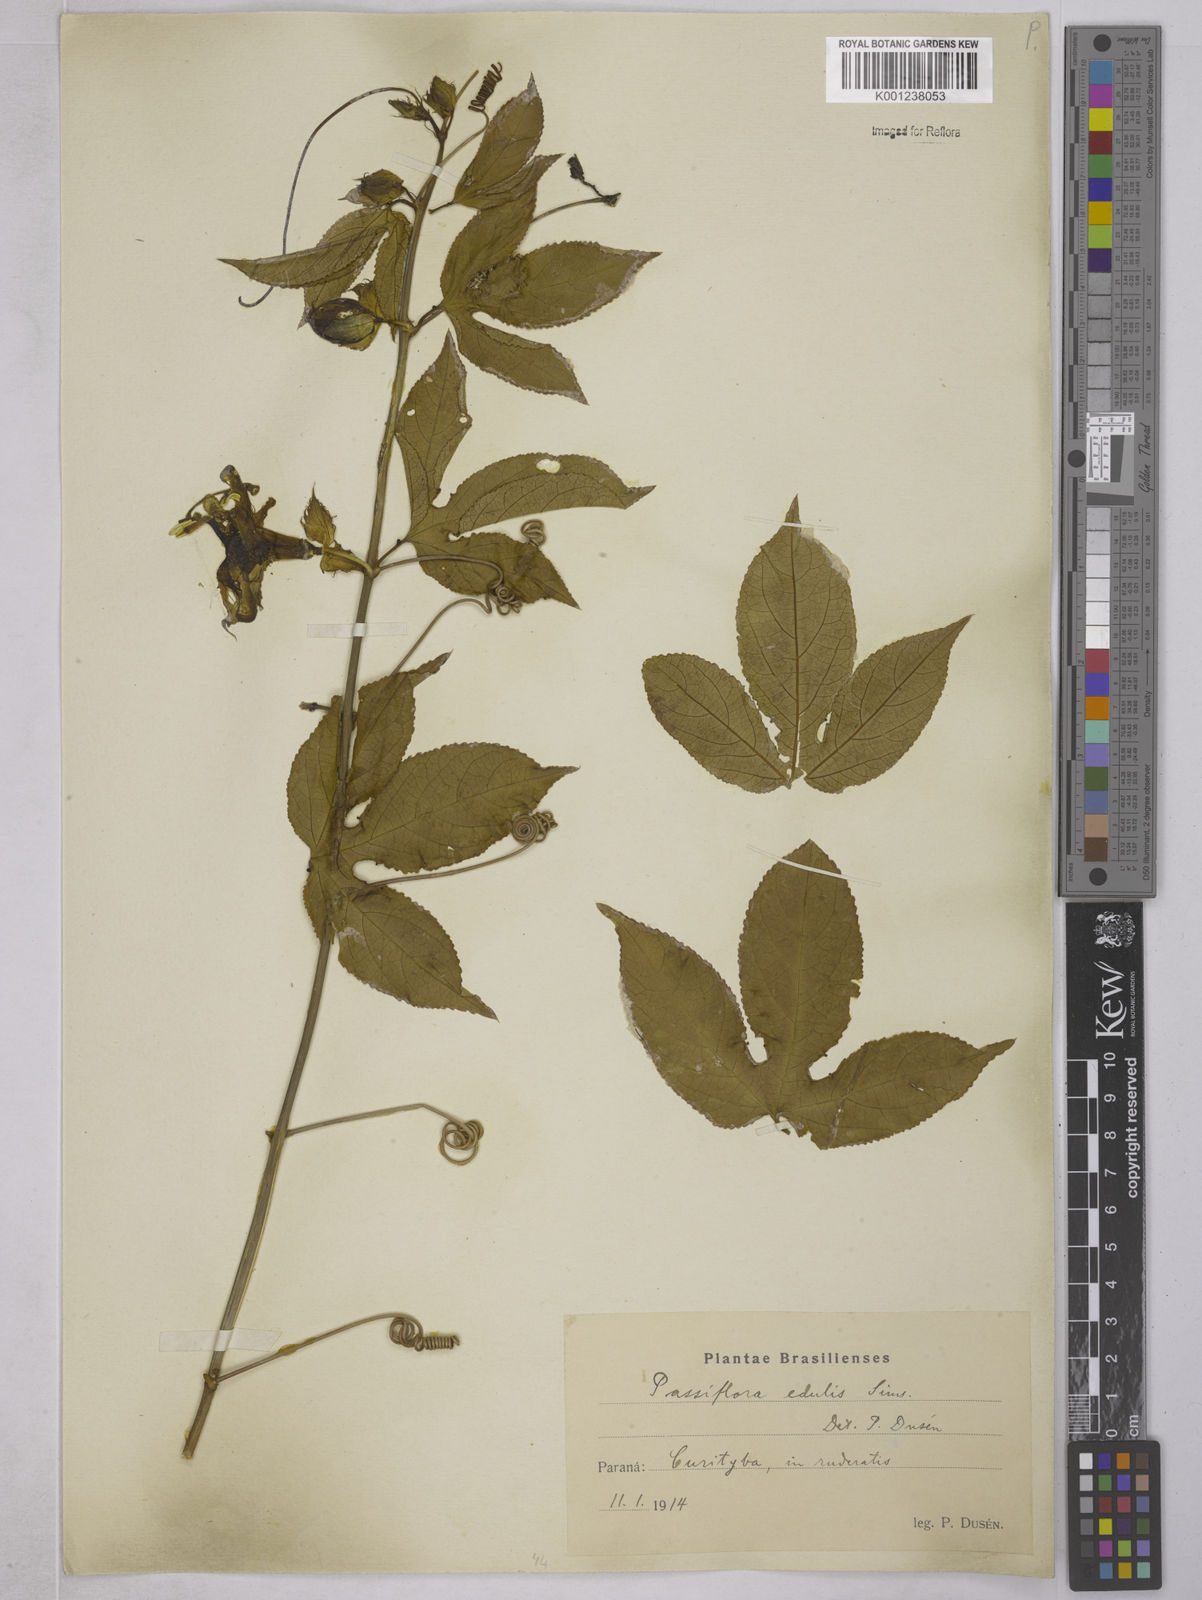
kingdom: Plantae
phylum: Tracheophyta
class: Magnoliopsida
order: Malpighiales
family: Passifloraceae
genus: Passiflora
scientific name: Passiflora edulis
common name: Purple granadilla
